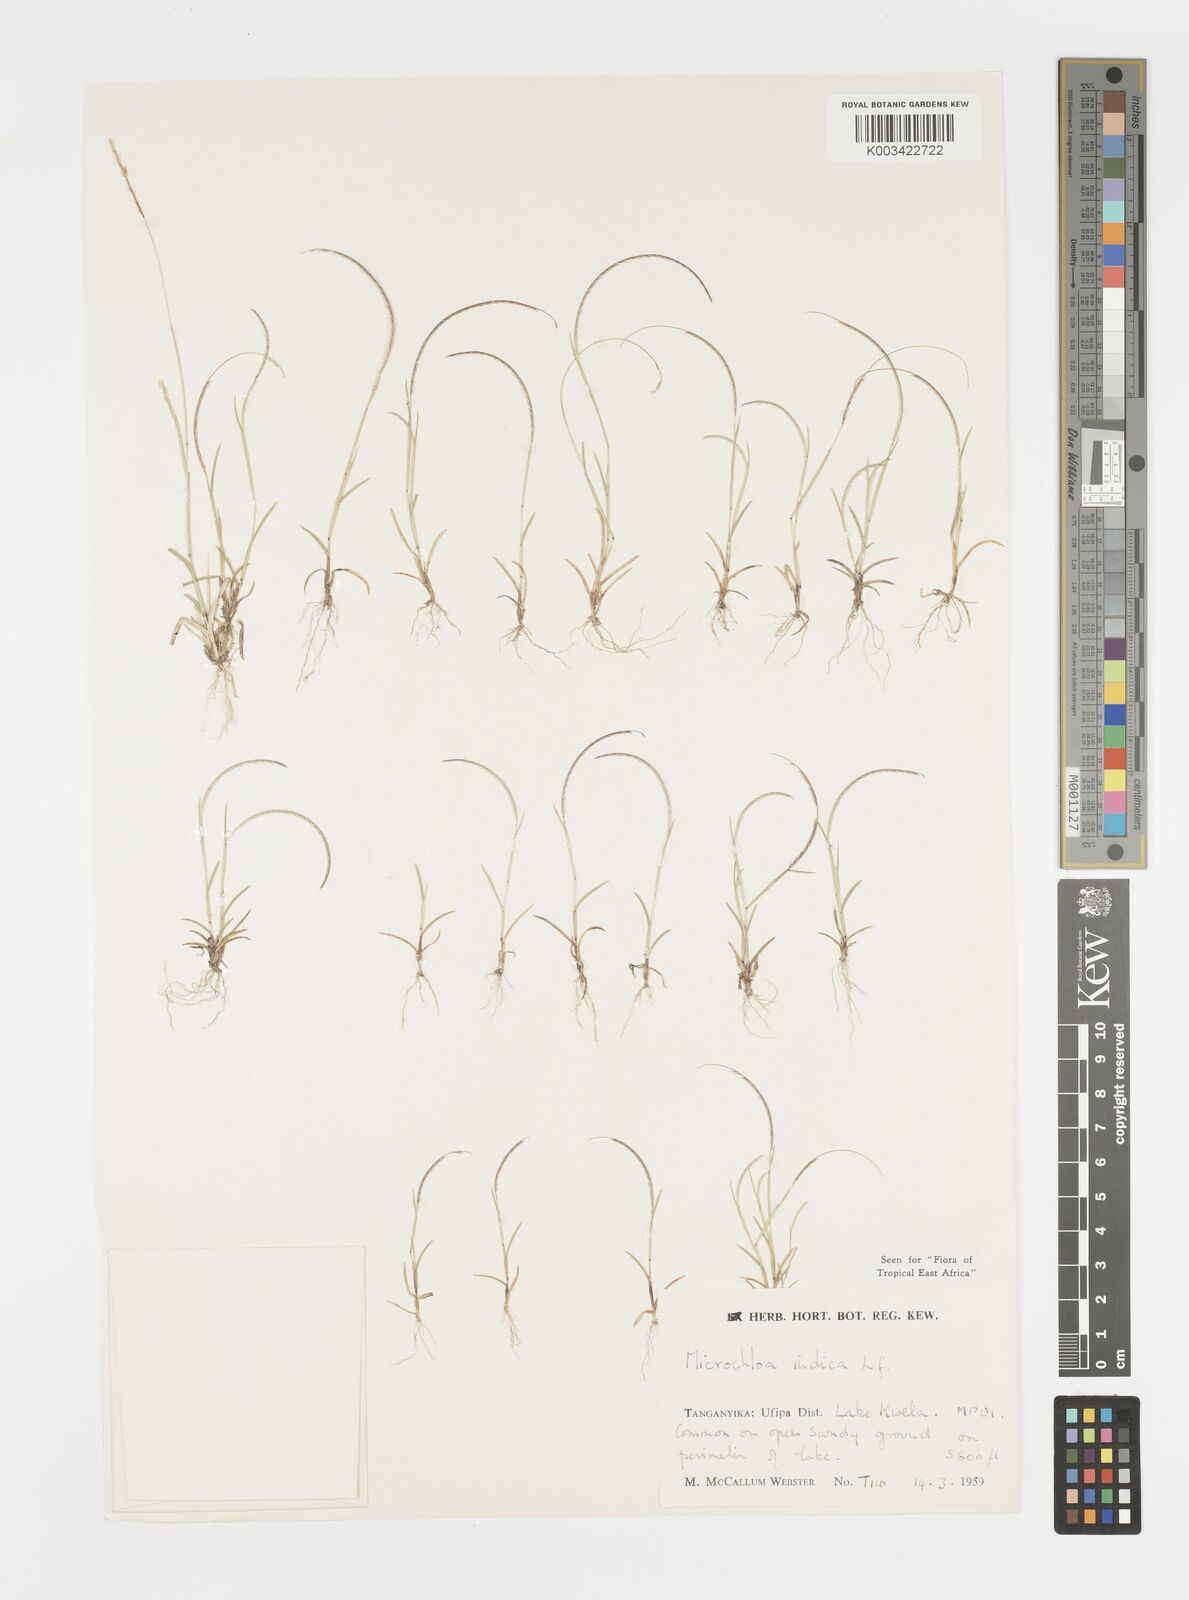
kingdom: Plantae
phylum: Tracheophyta
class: Liliopsida
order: Poales
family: Poaceae
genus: Microchloa
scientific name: Microchloa indica
